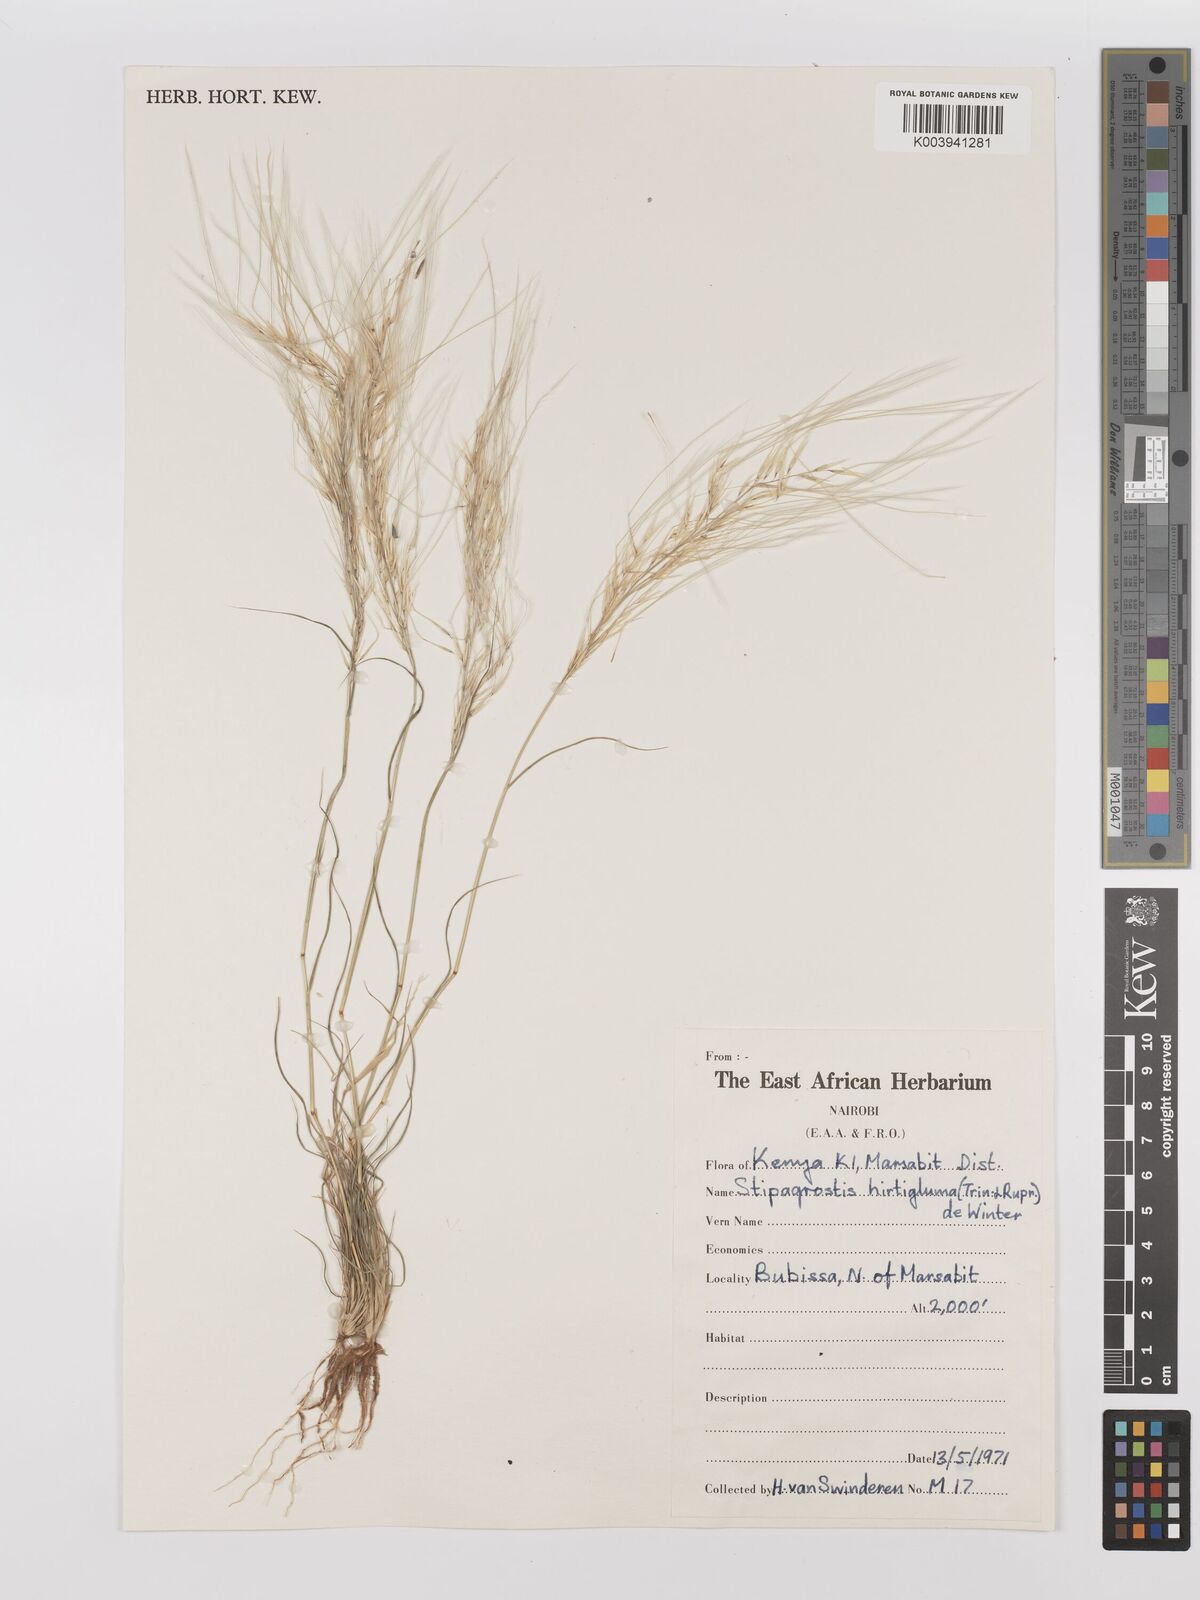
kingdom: Plantae
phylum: Tracheophyta
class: Liliopsida
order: Poales
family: Poaceae
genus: Stipagrostis
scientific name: Stipagrostis hirtigluma
